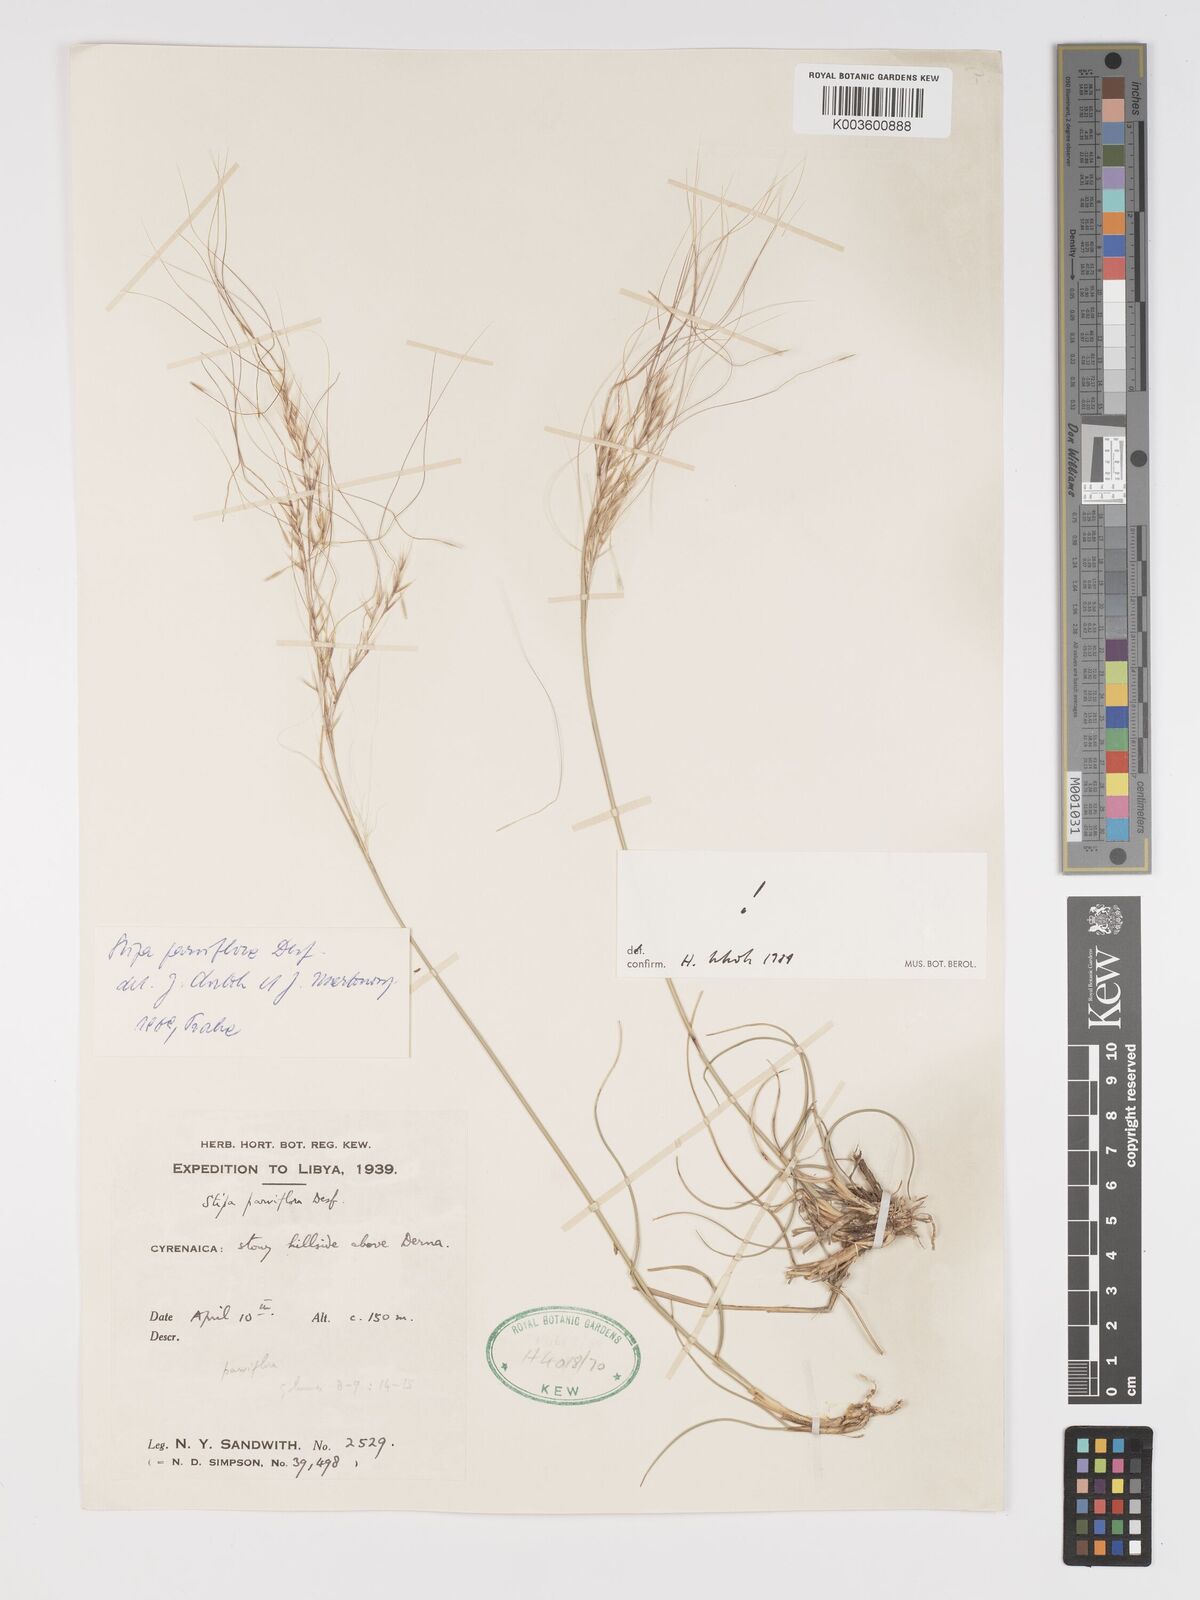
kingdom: Plantae
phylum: Tracheophyta
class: Liliopsida
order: Poales
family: Poaceae
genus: Achnatherum
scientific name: Achnatherum parviflorum
